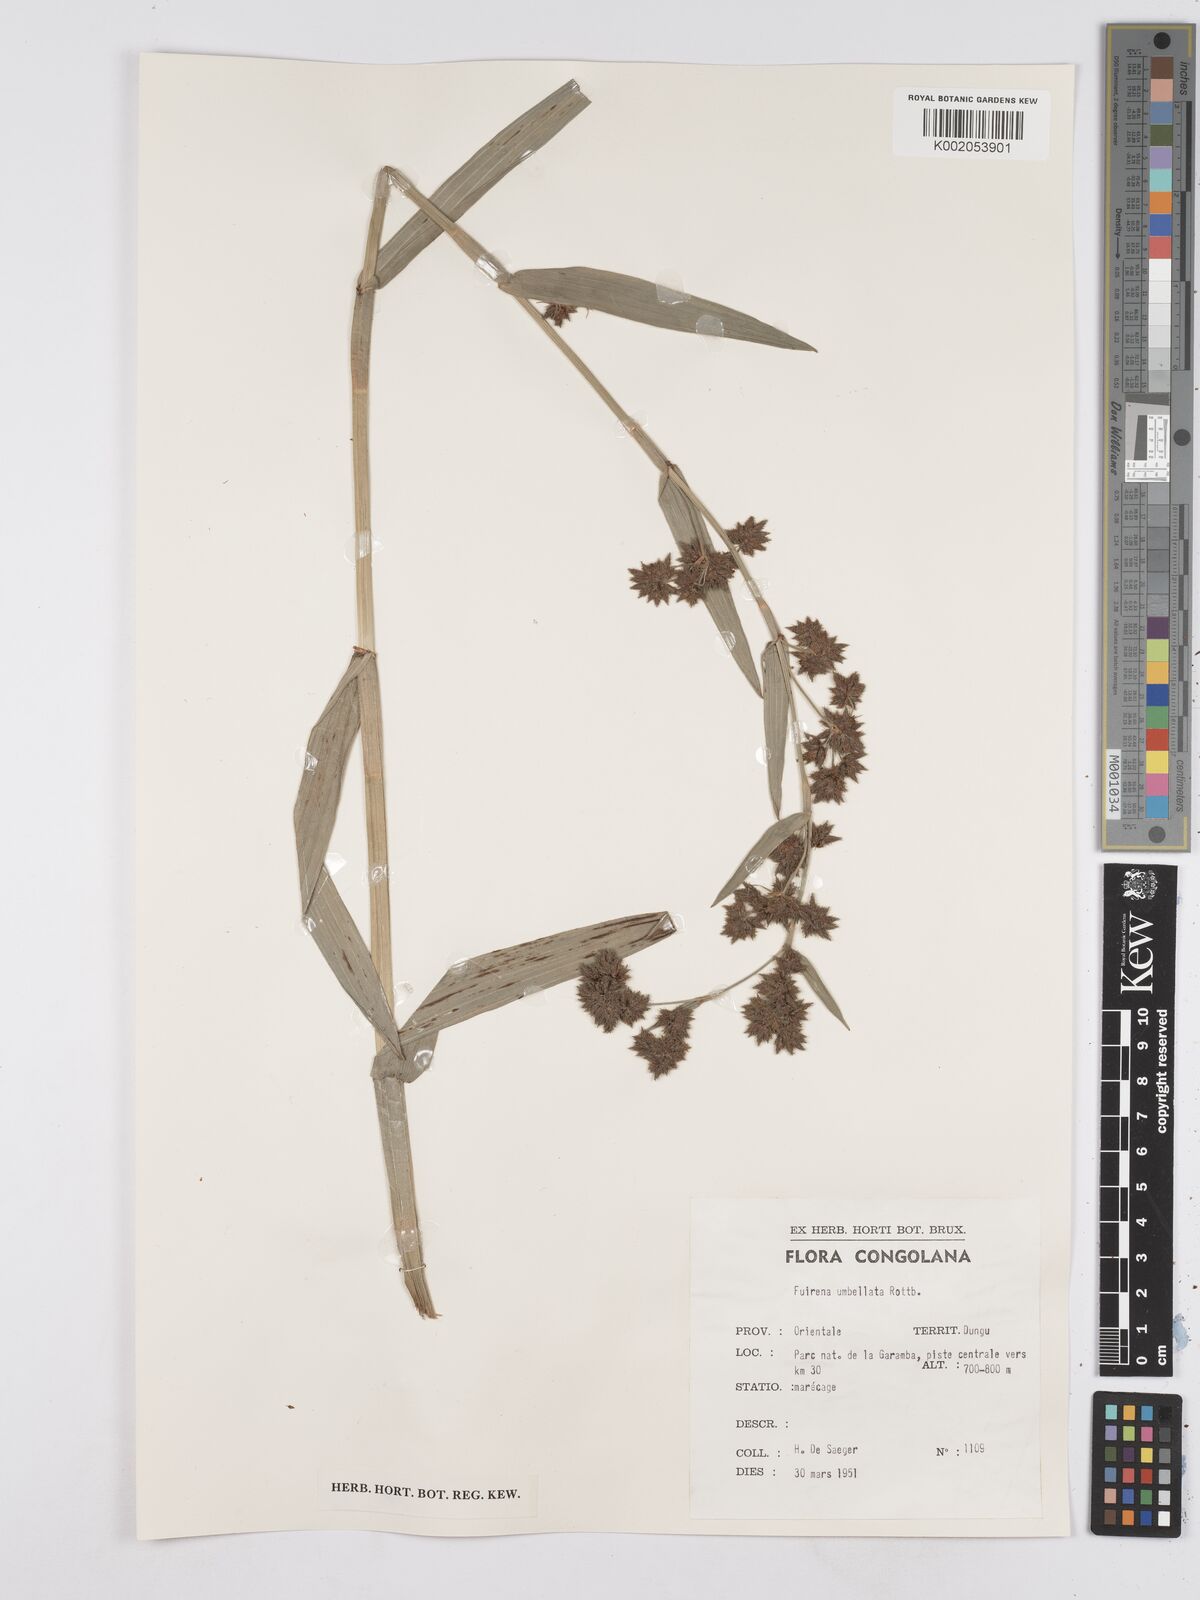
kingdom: Plantae
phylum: Tracheophyta
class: Liliopsida
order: Poales
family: Cyperaceae
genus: Fuirena
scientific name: Fuirena umbellata
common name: Yefen
